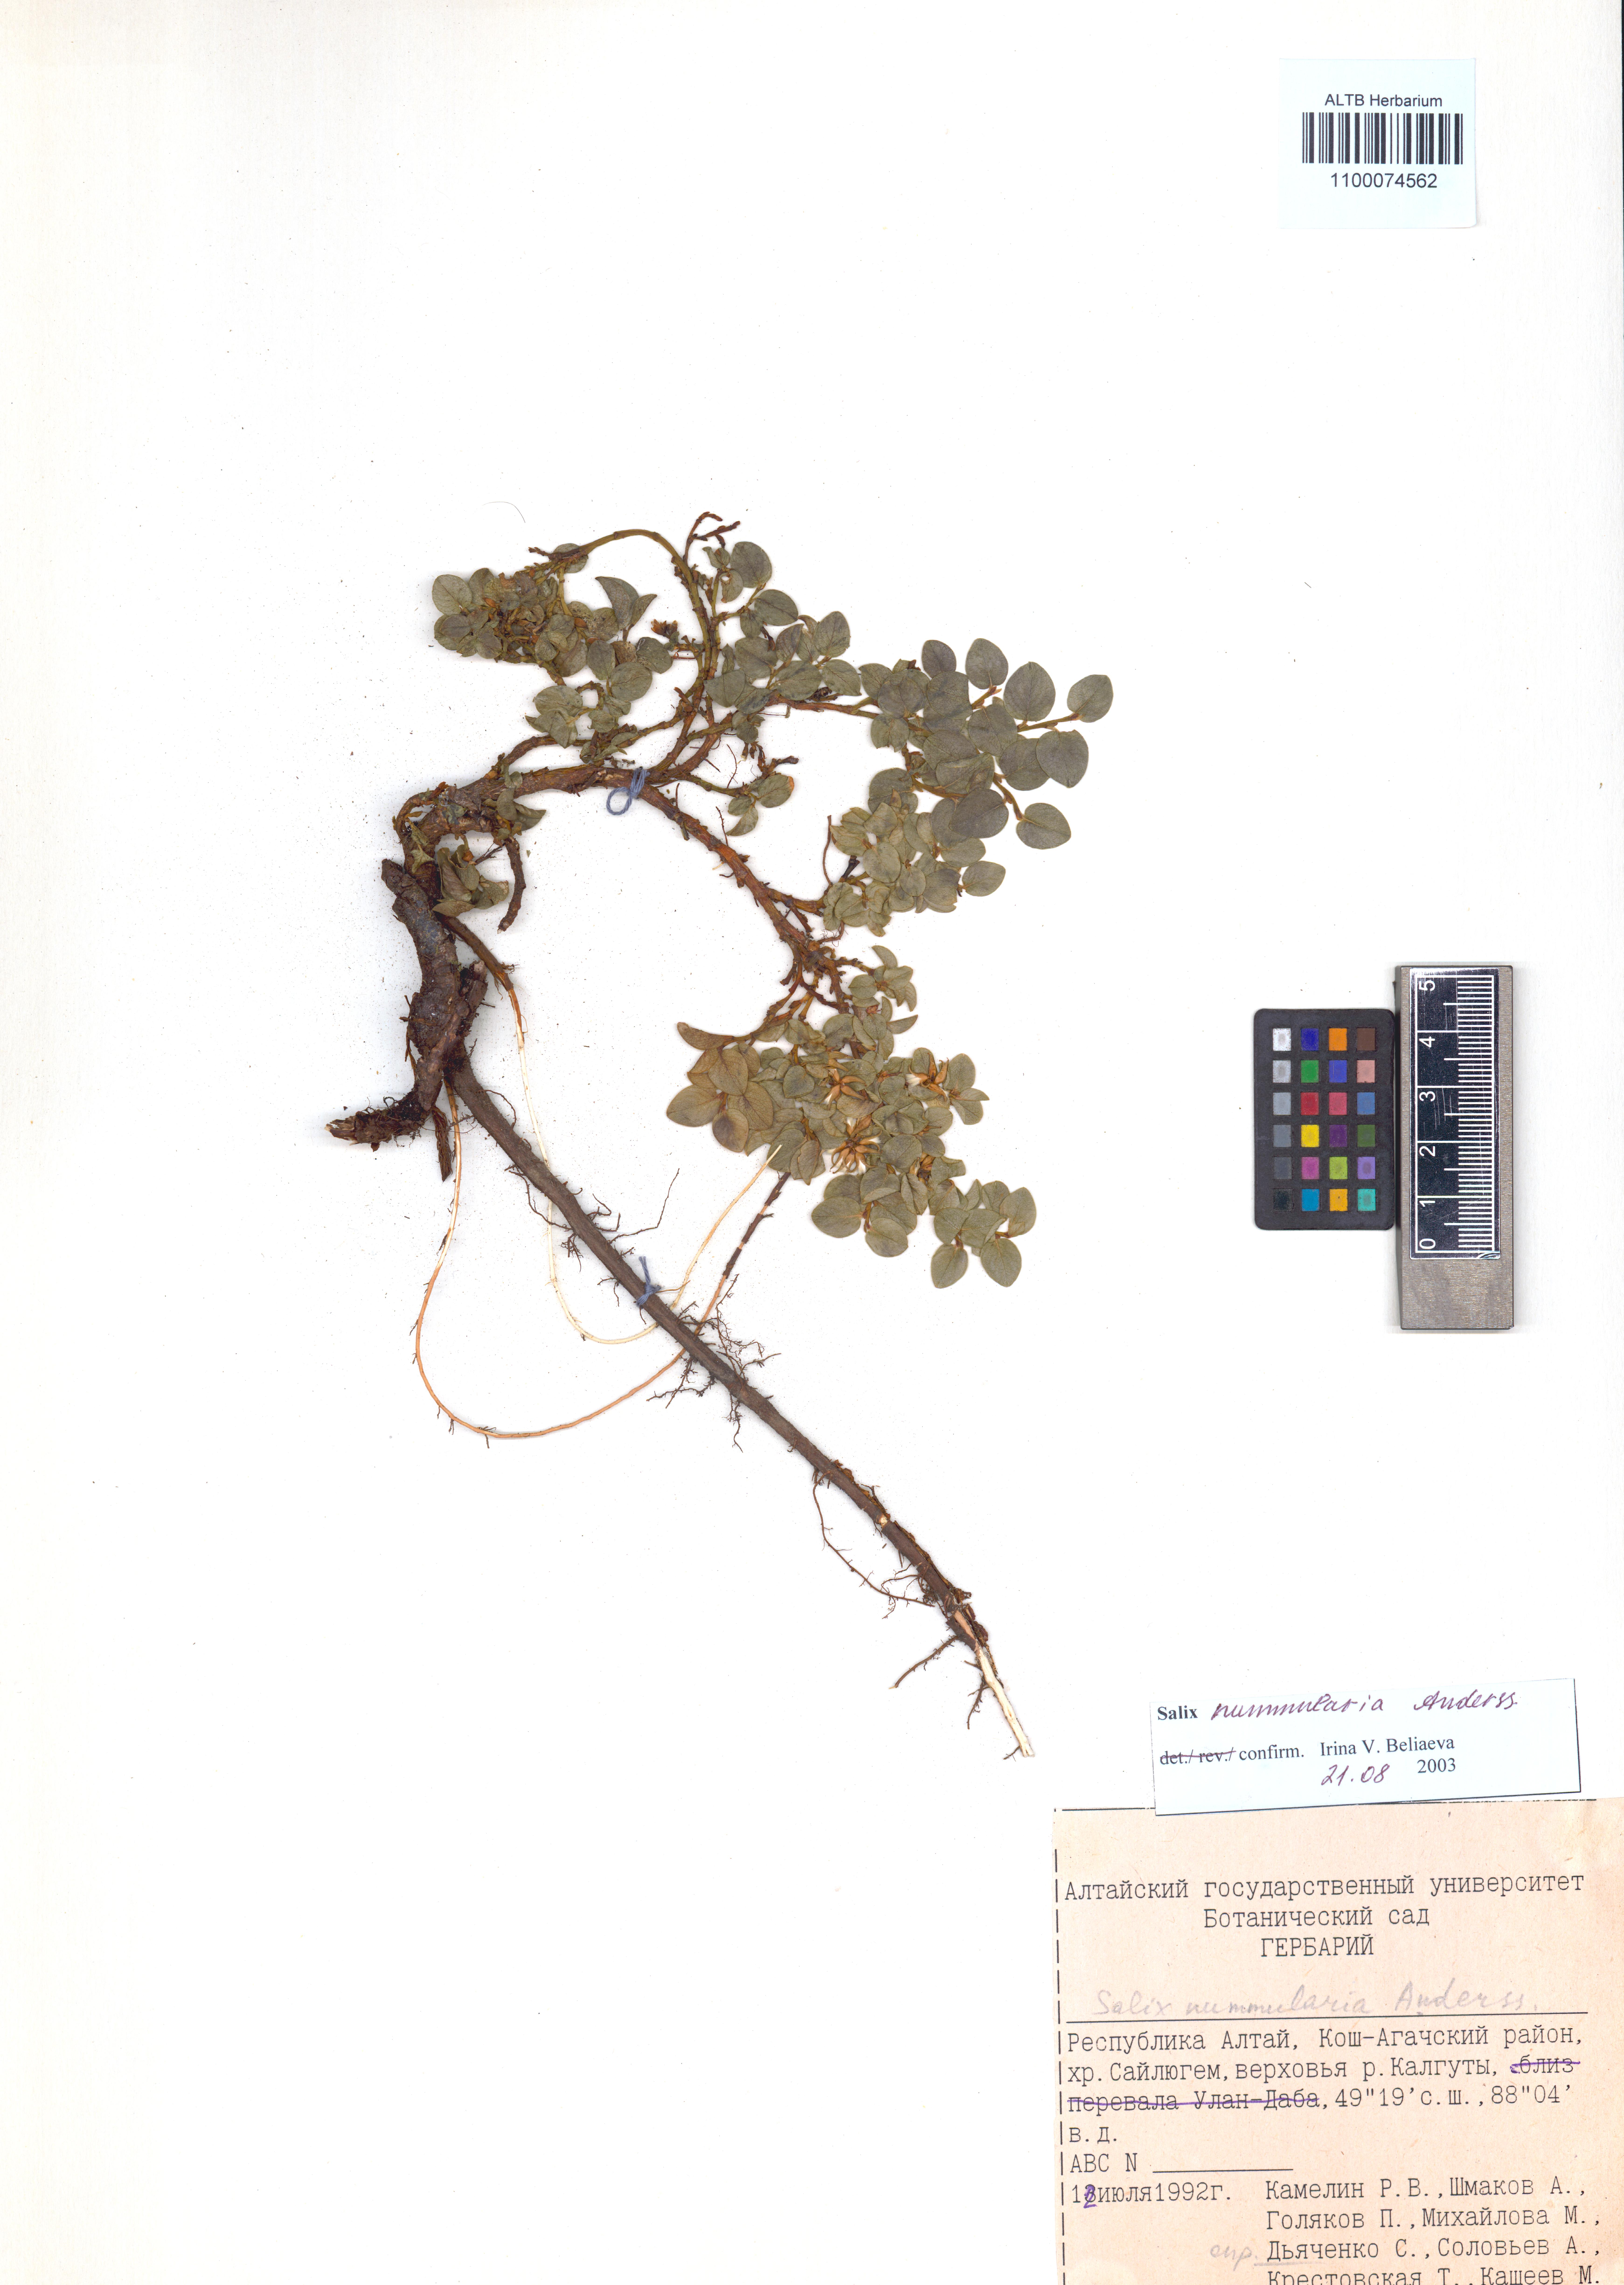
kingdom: Plantae
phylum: Tracheophyta
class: Magnoliopsida
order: Malpighiales
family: Salicaceae
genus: Salix
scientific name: Salix nummularia
